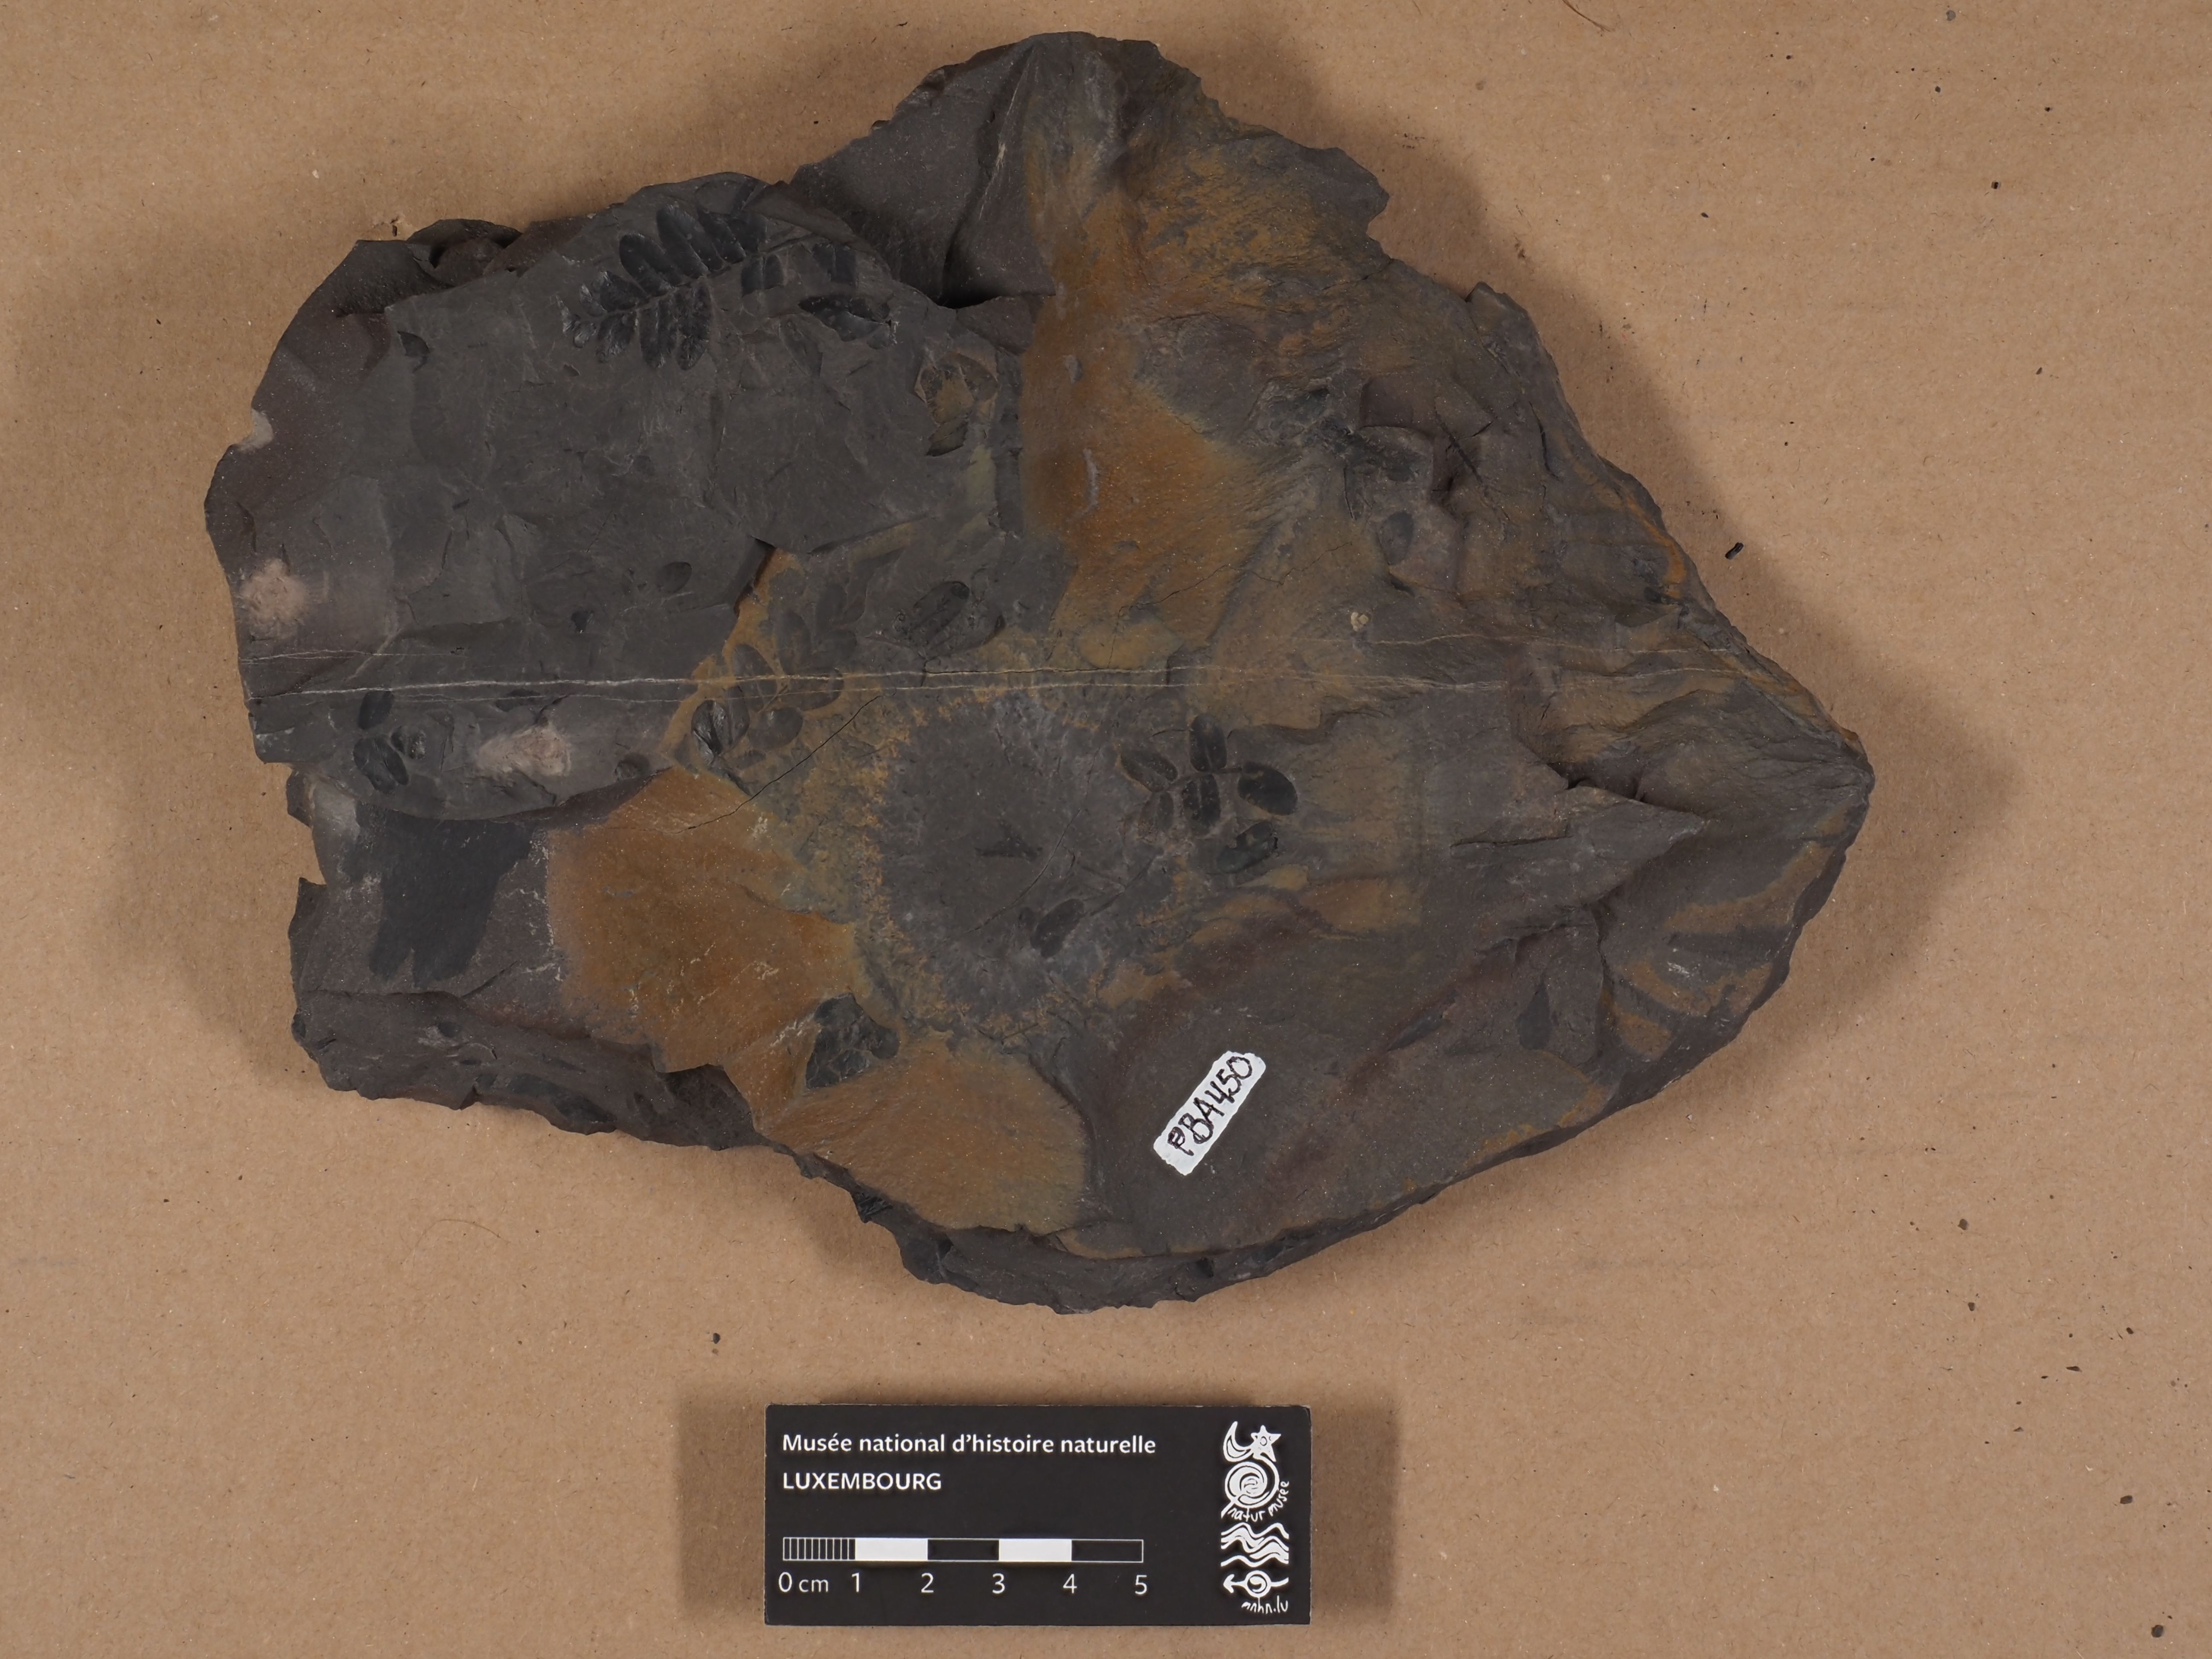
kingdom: Plantae
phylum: Tracheophyta
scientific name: Tracheophyta
